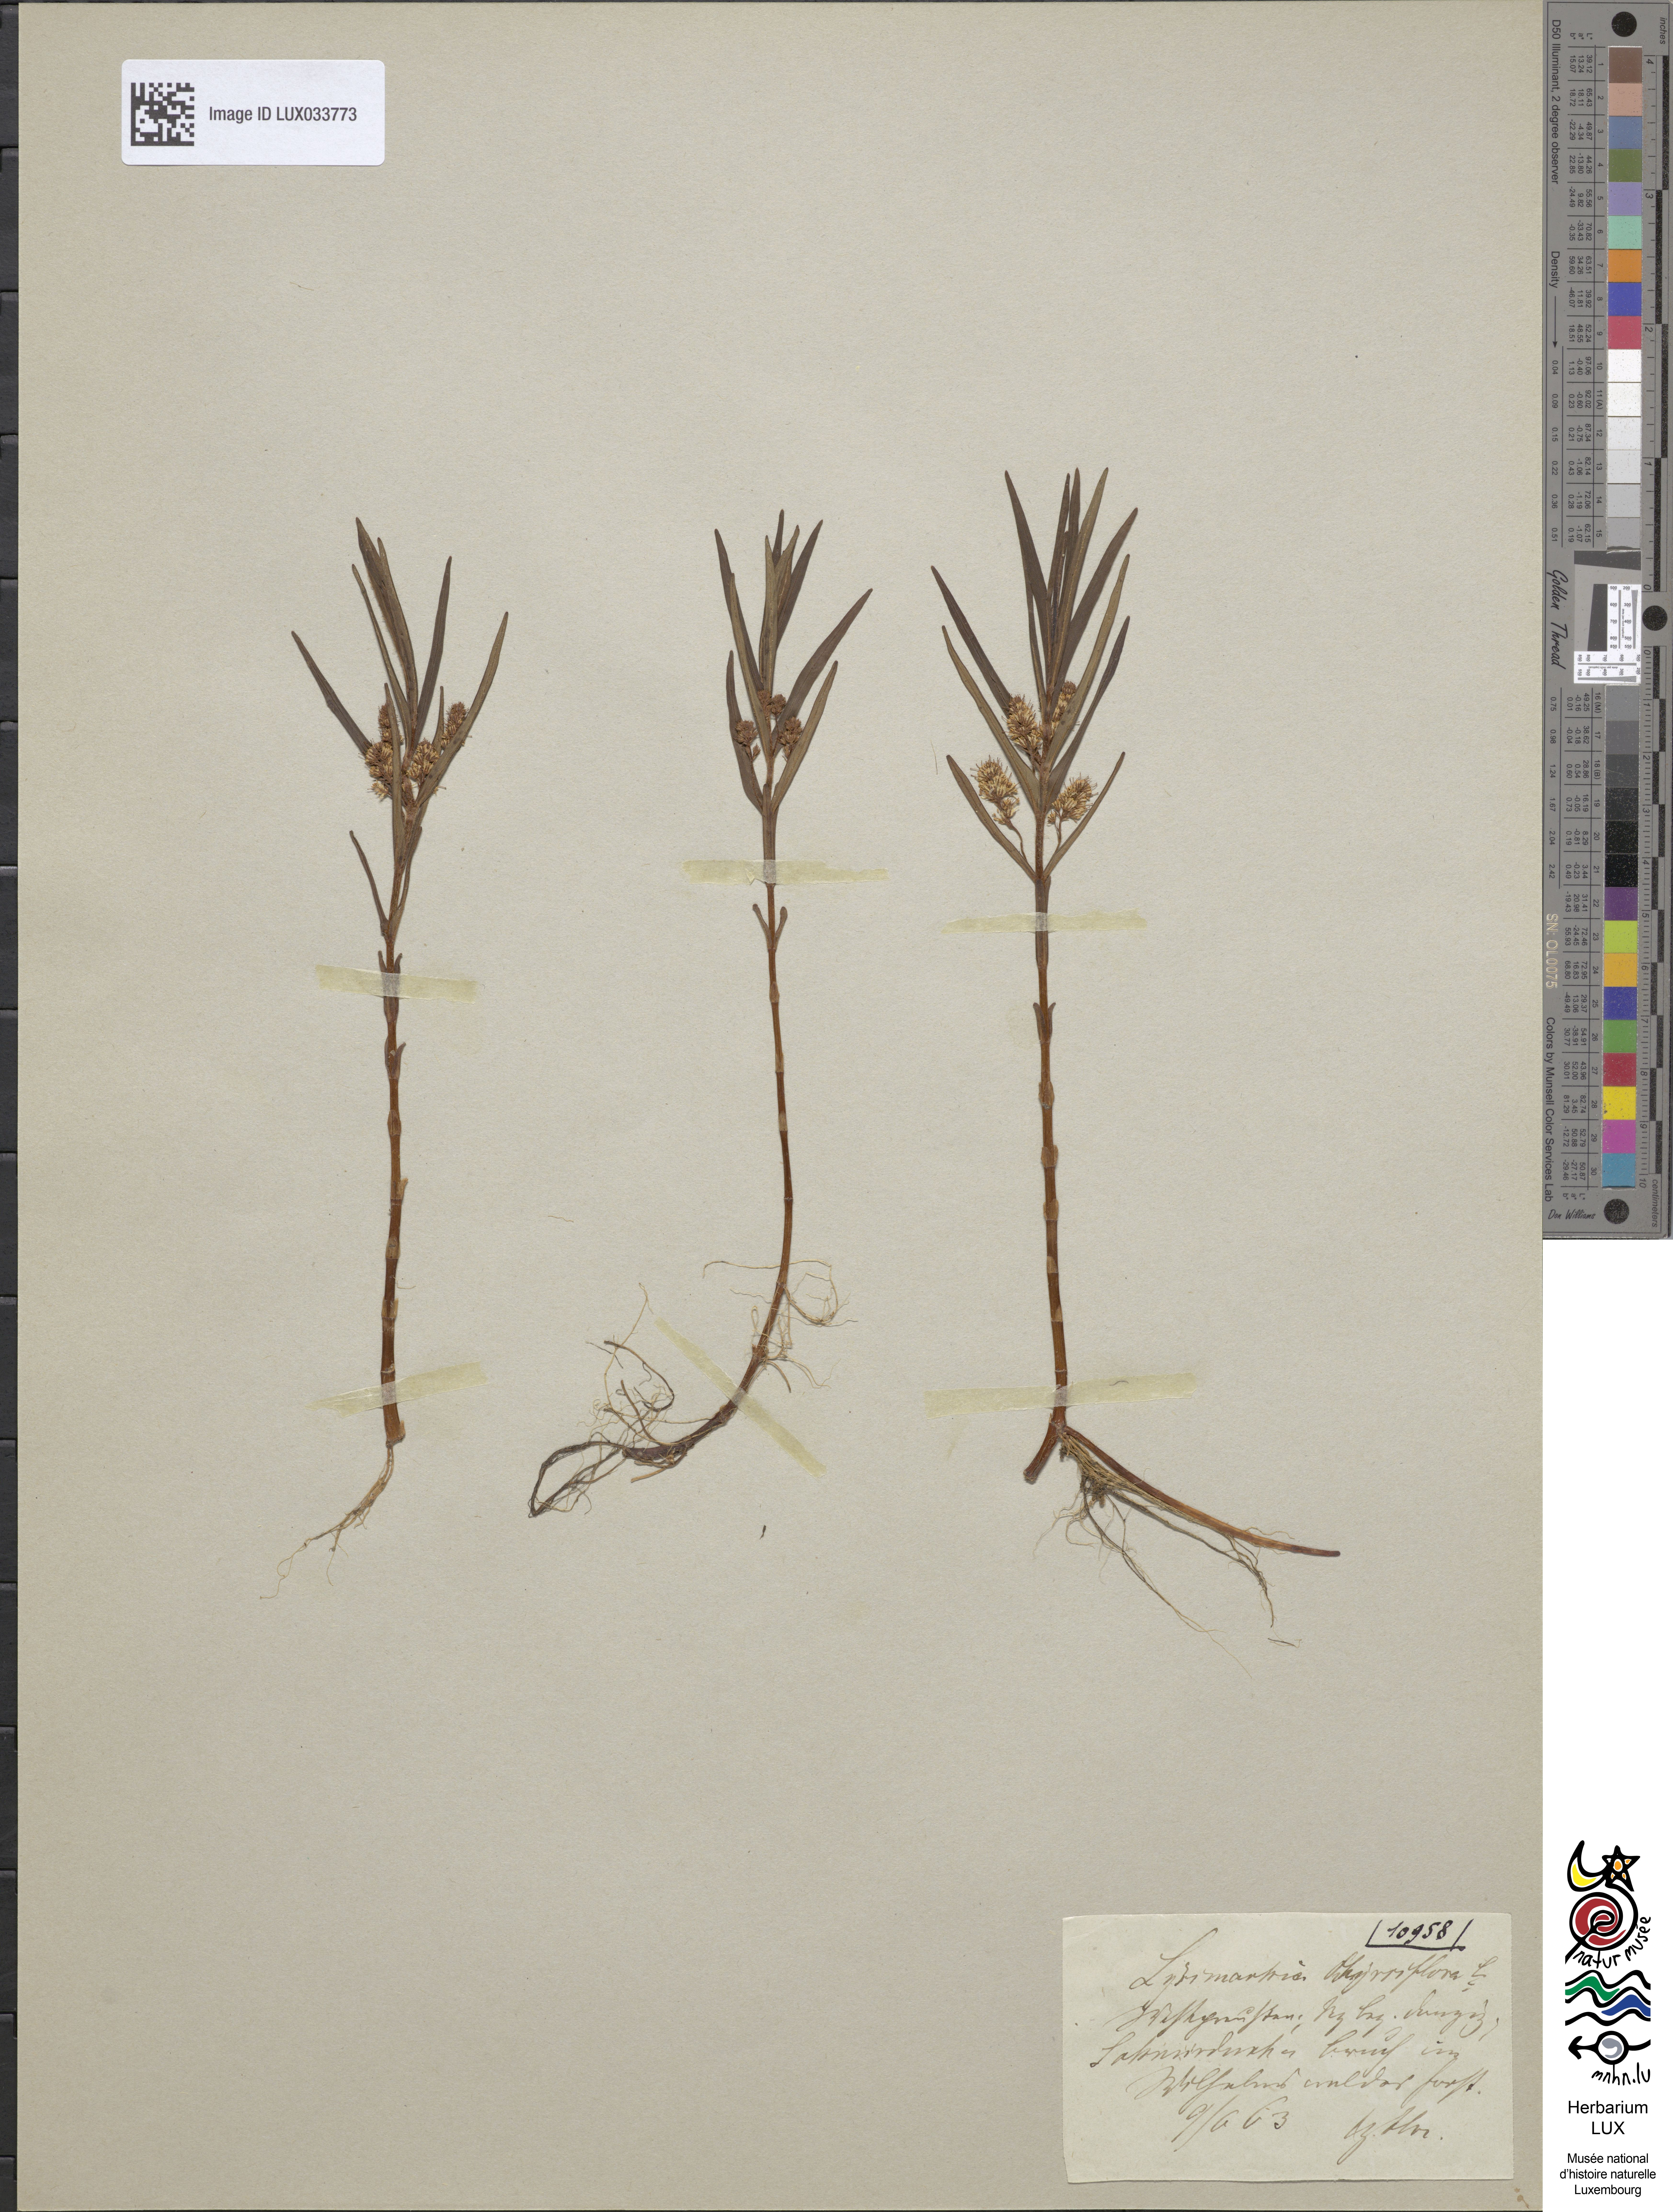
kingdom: Plantae
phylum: Tracheophyta
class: Magnoliopsida
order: Ericales
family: Primulaceae
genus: Lysimachia
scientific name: Lysimachia thyrsiflora
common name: Tufted loosestrife
